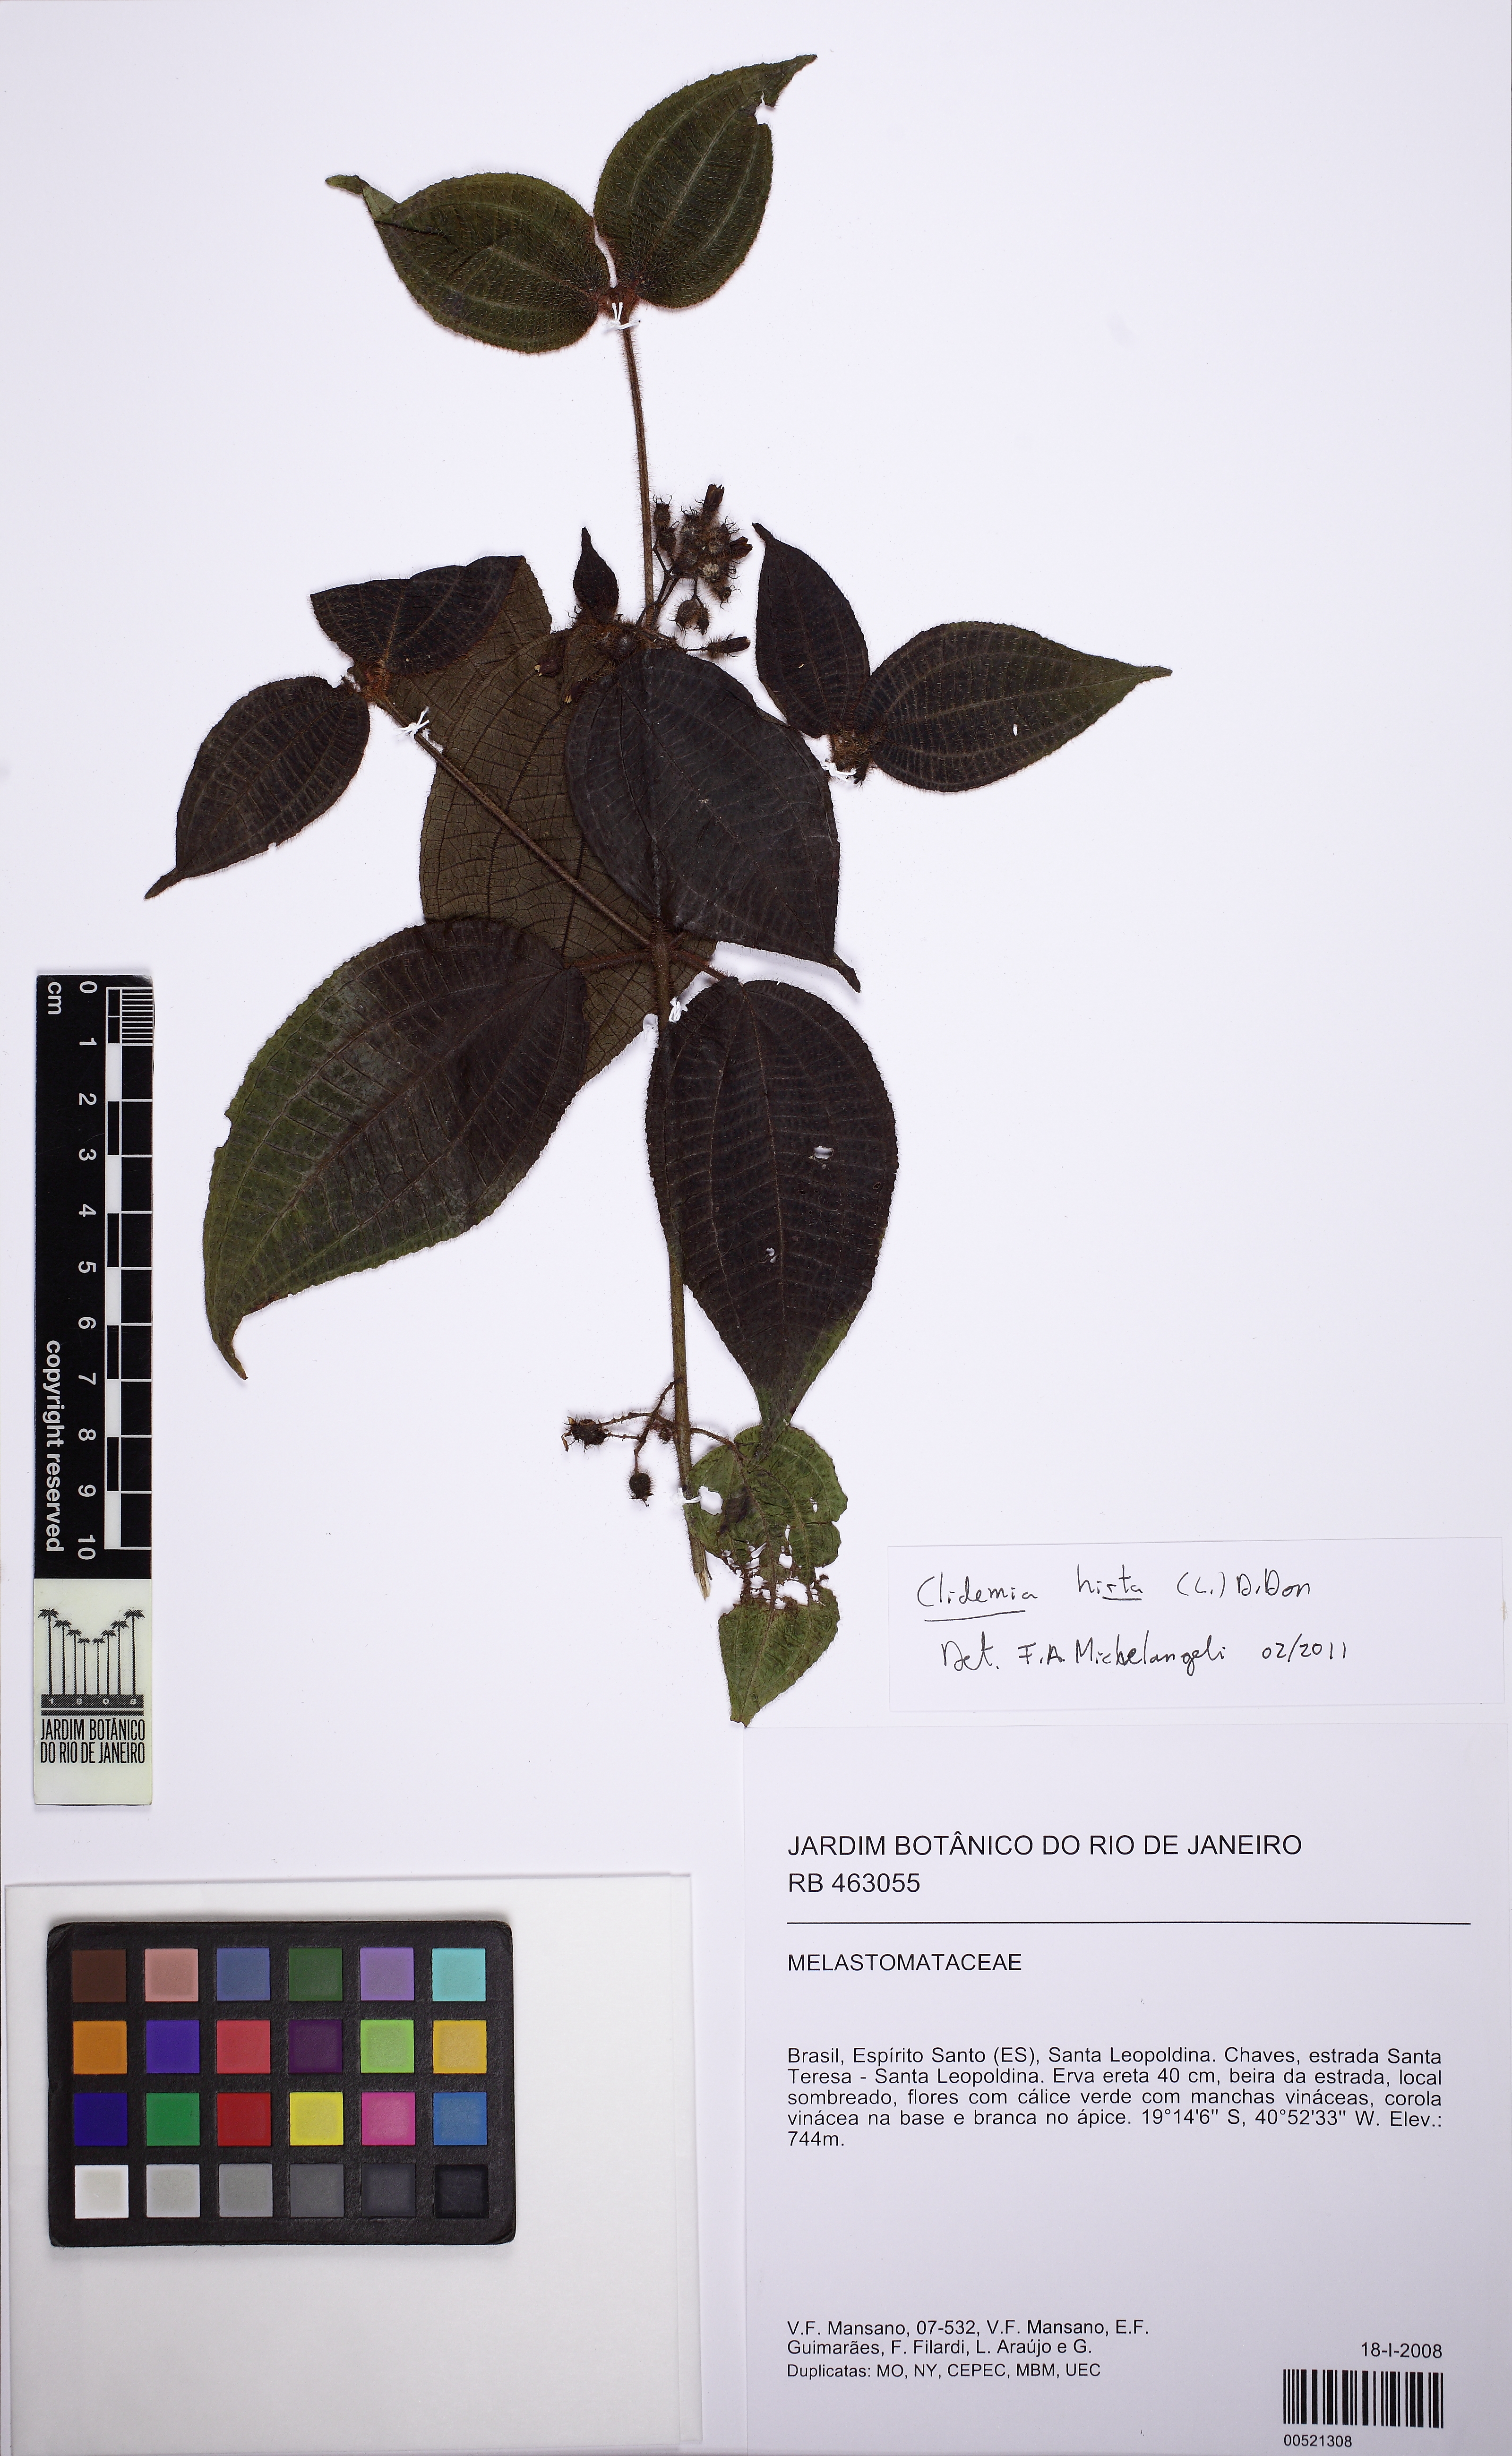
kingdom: Plantae
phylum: Tracheophyta
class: Magnoliopsida
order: Myrtales
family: Melastomataceae
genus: Miconia
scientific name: Miconia crenata
